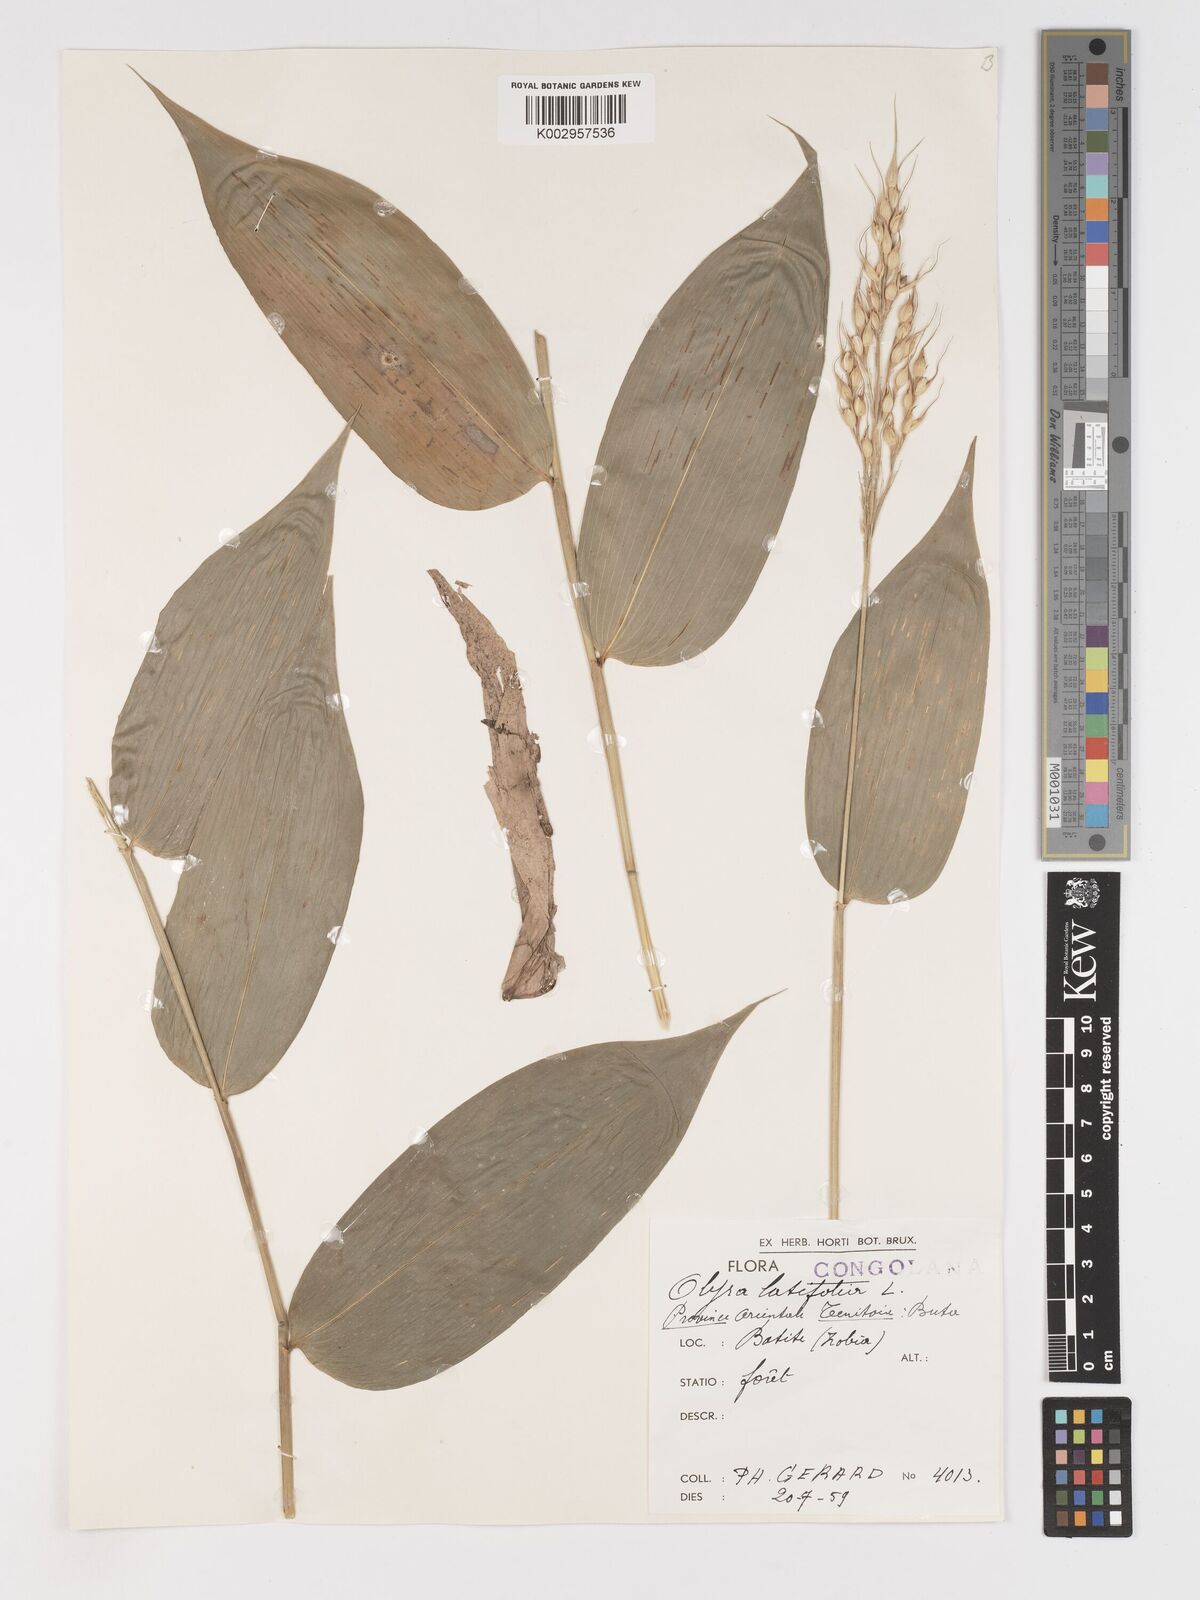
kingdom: Plantae
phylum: Tracheophyta
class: Liliopsida
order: Poales
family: Poaceae
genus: Olyra
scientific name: Olyra latifolia
